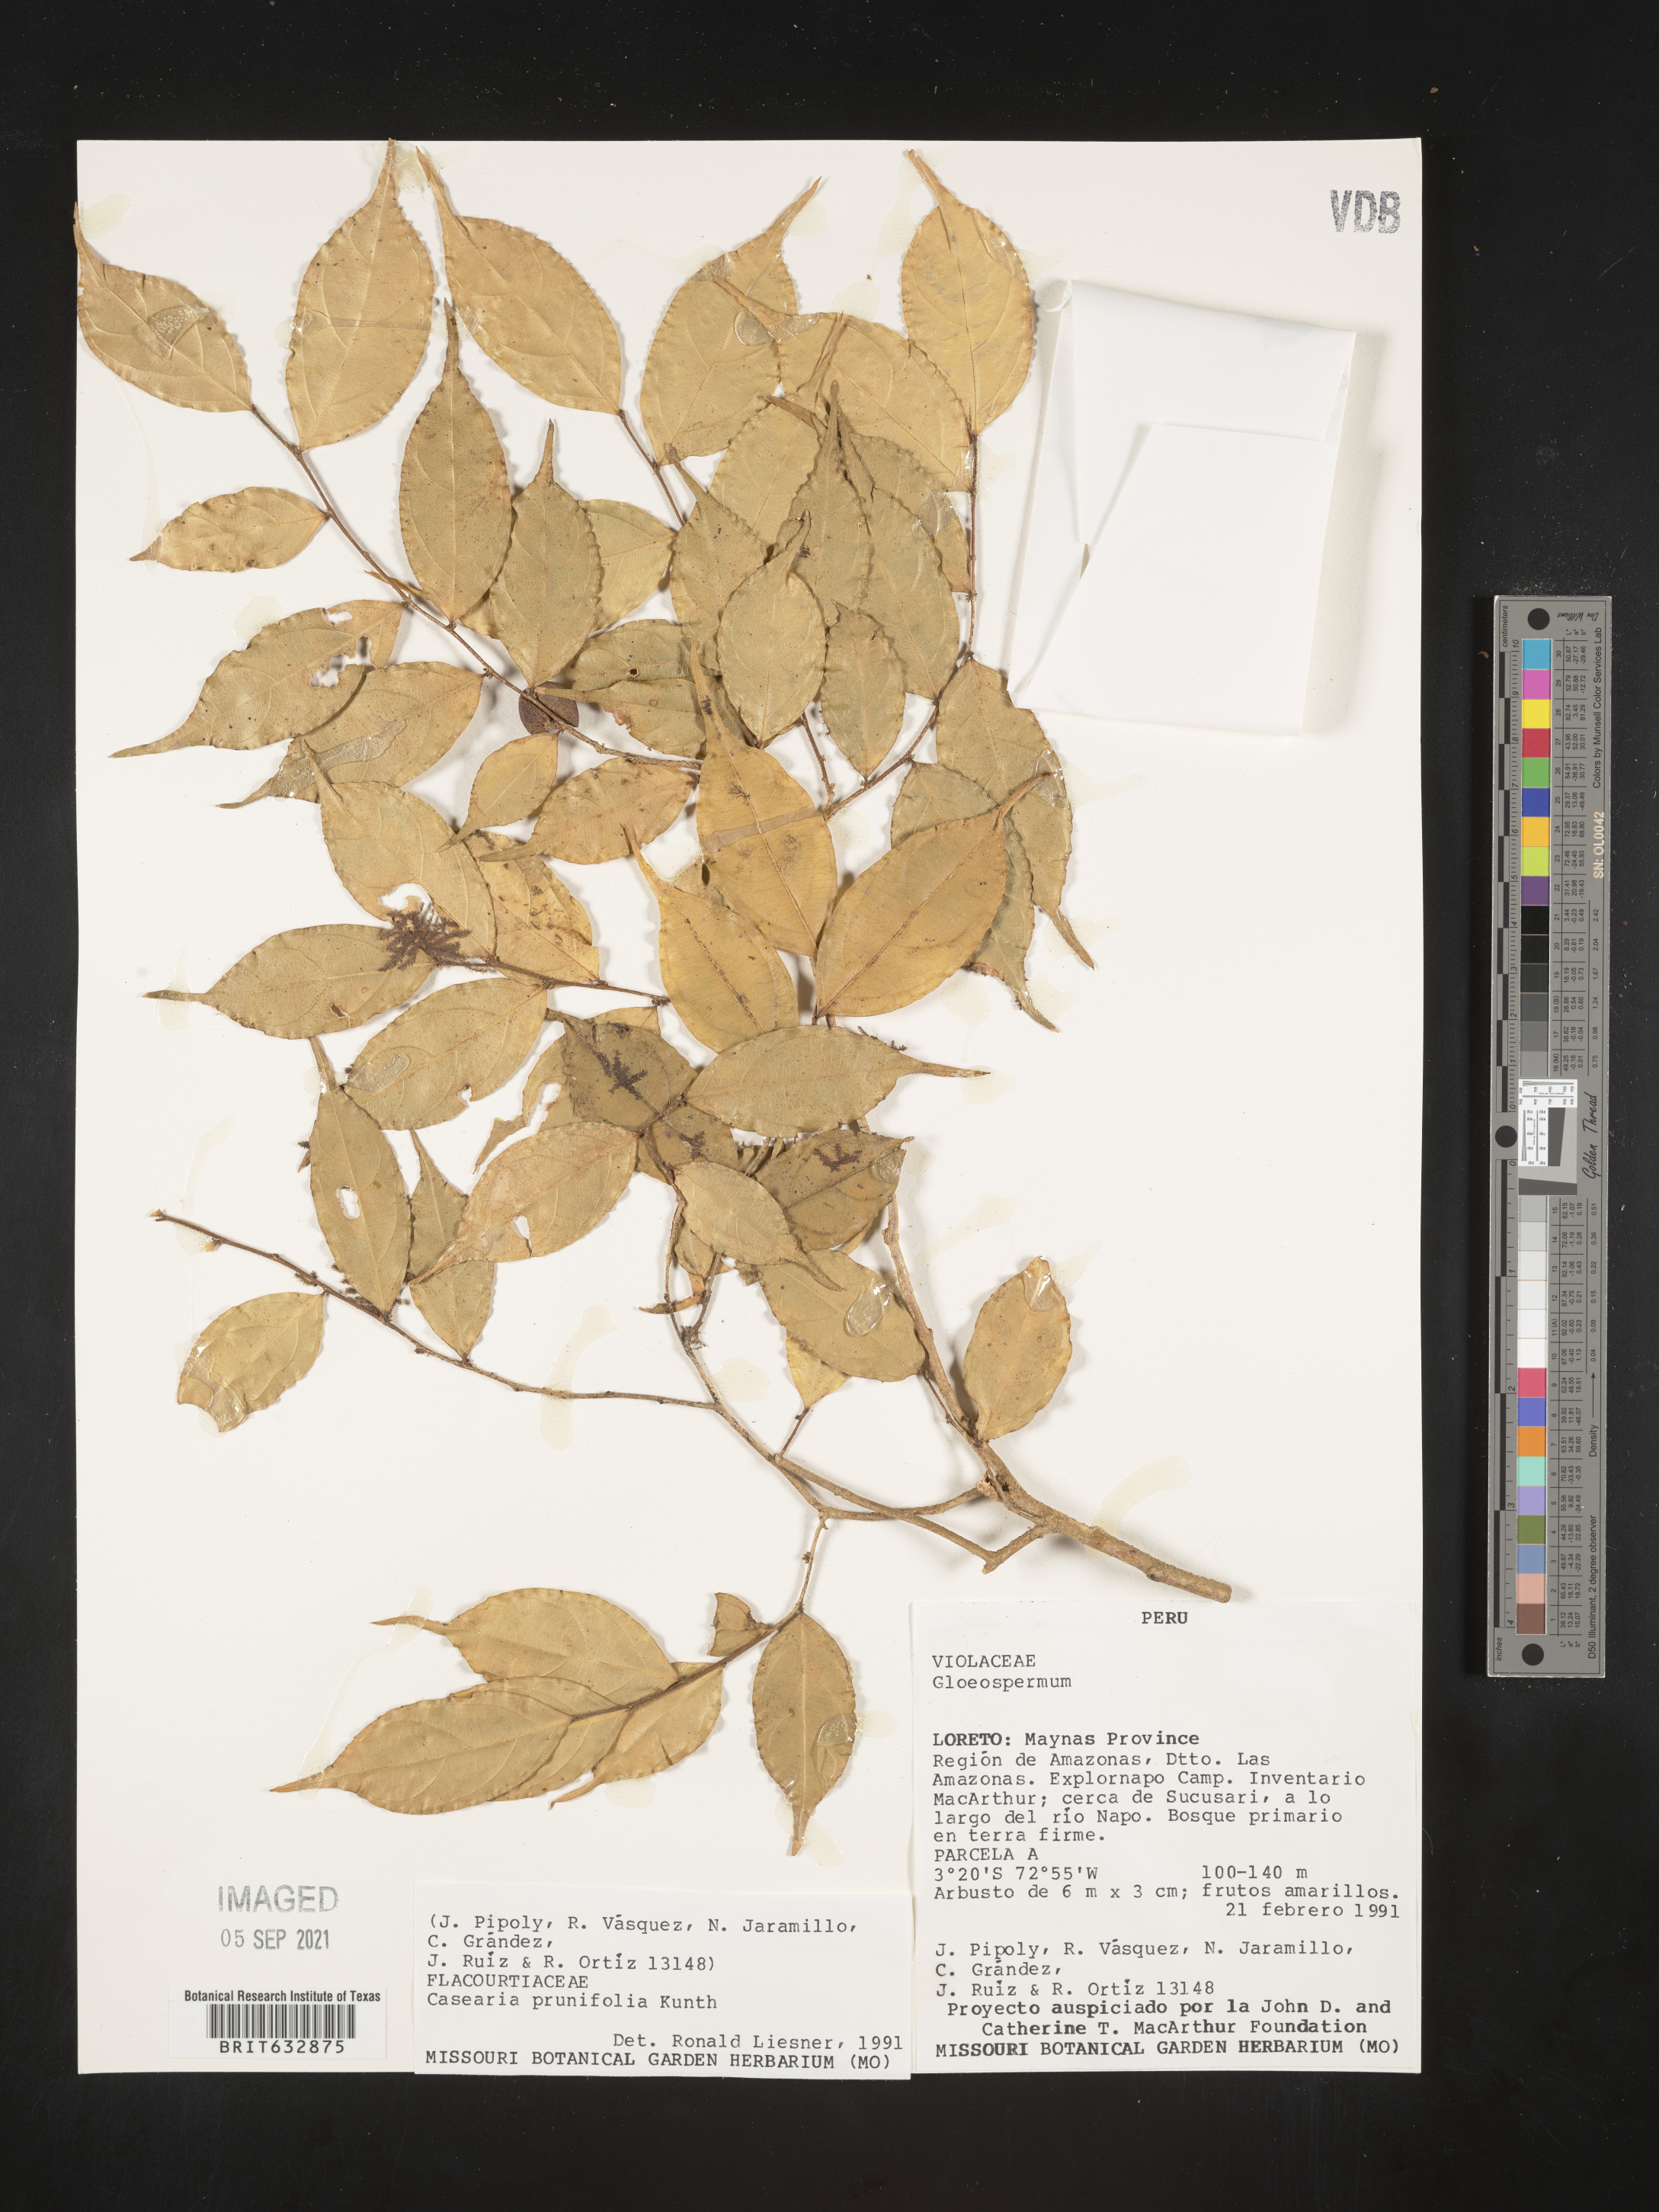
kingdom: Plantae
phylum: Tracheophyta
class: Magnoliopsida
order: Malpighiales
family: Salicaceae
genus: Casearia
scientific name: Casearia
